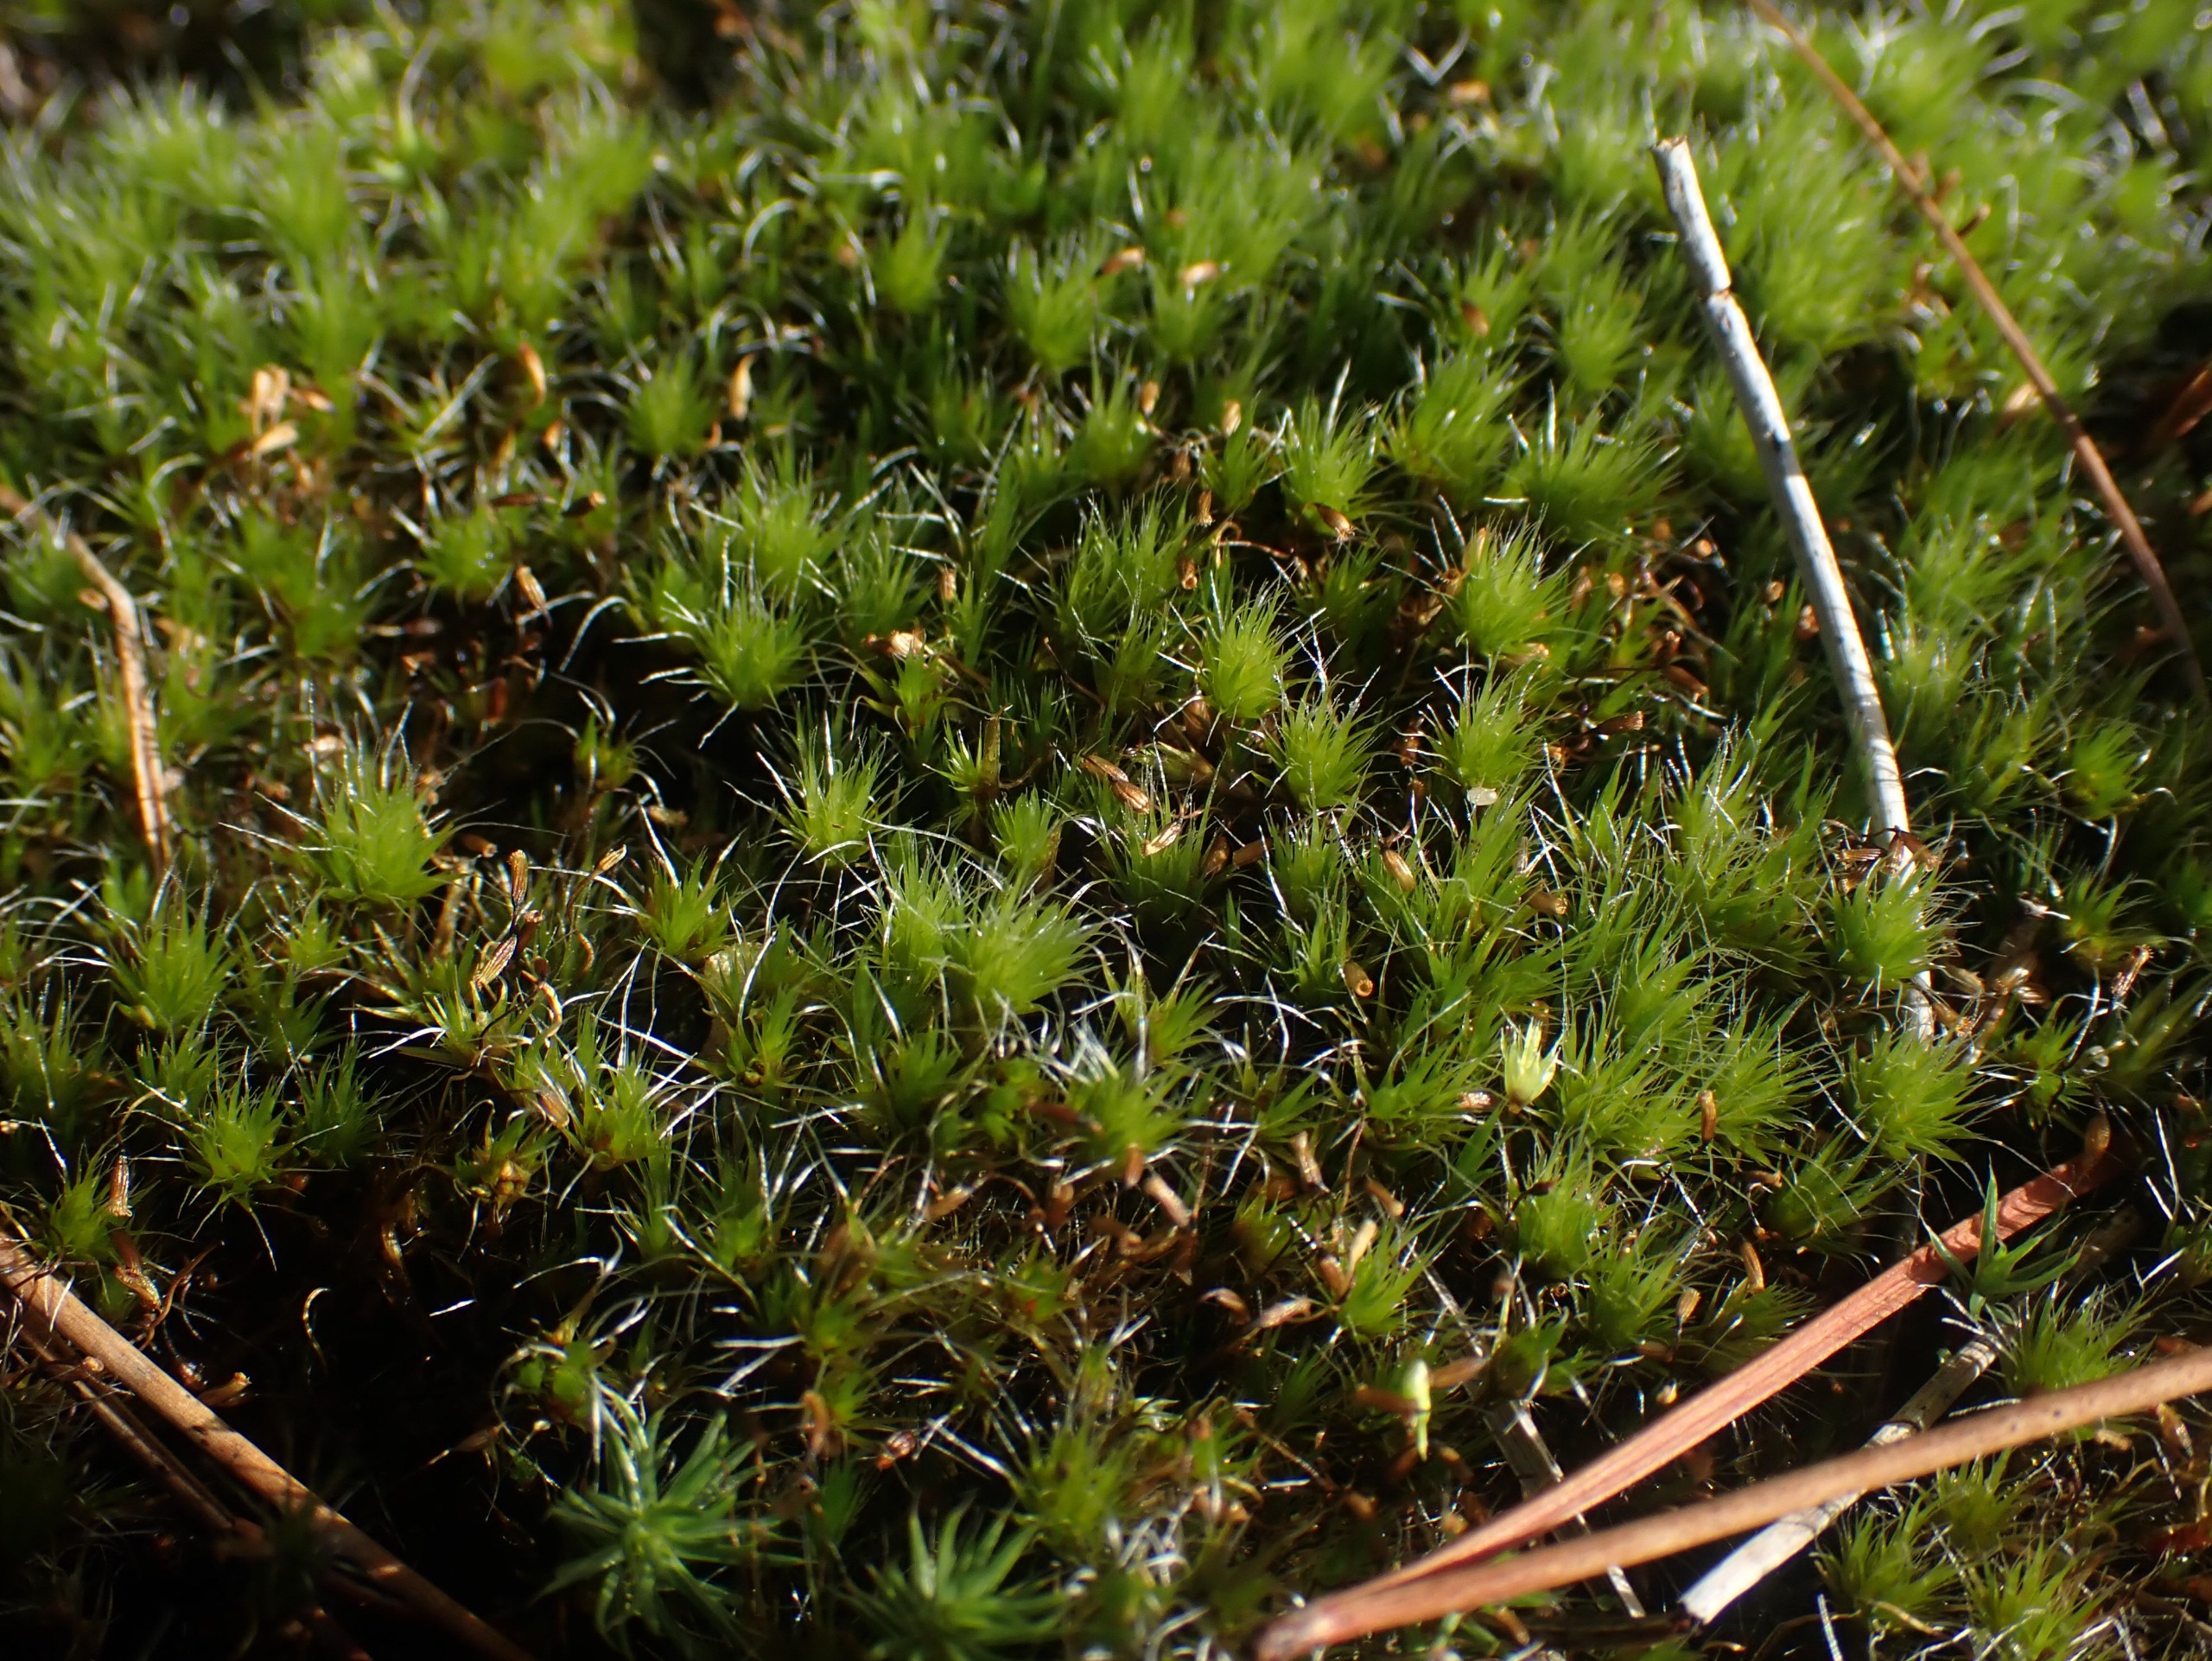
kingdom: Plantae
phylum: Bryophyta
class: Bryopsida
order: Dicranales
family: Leucobryaceae
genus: Campylopus
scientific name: Campylopus introflexus
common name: Stjerne-bredribbe
